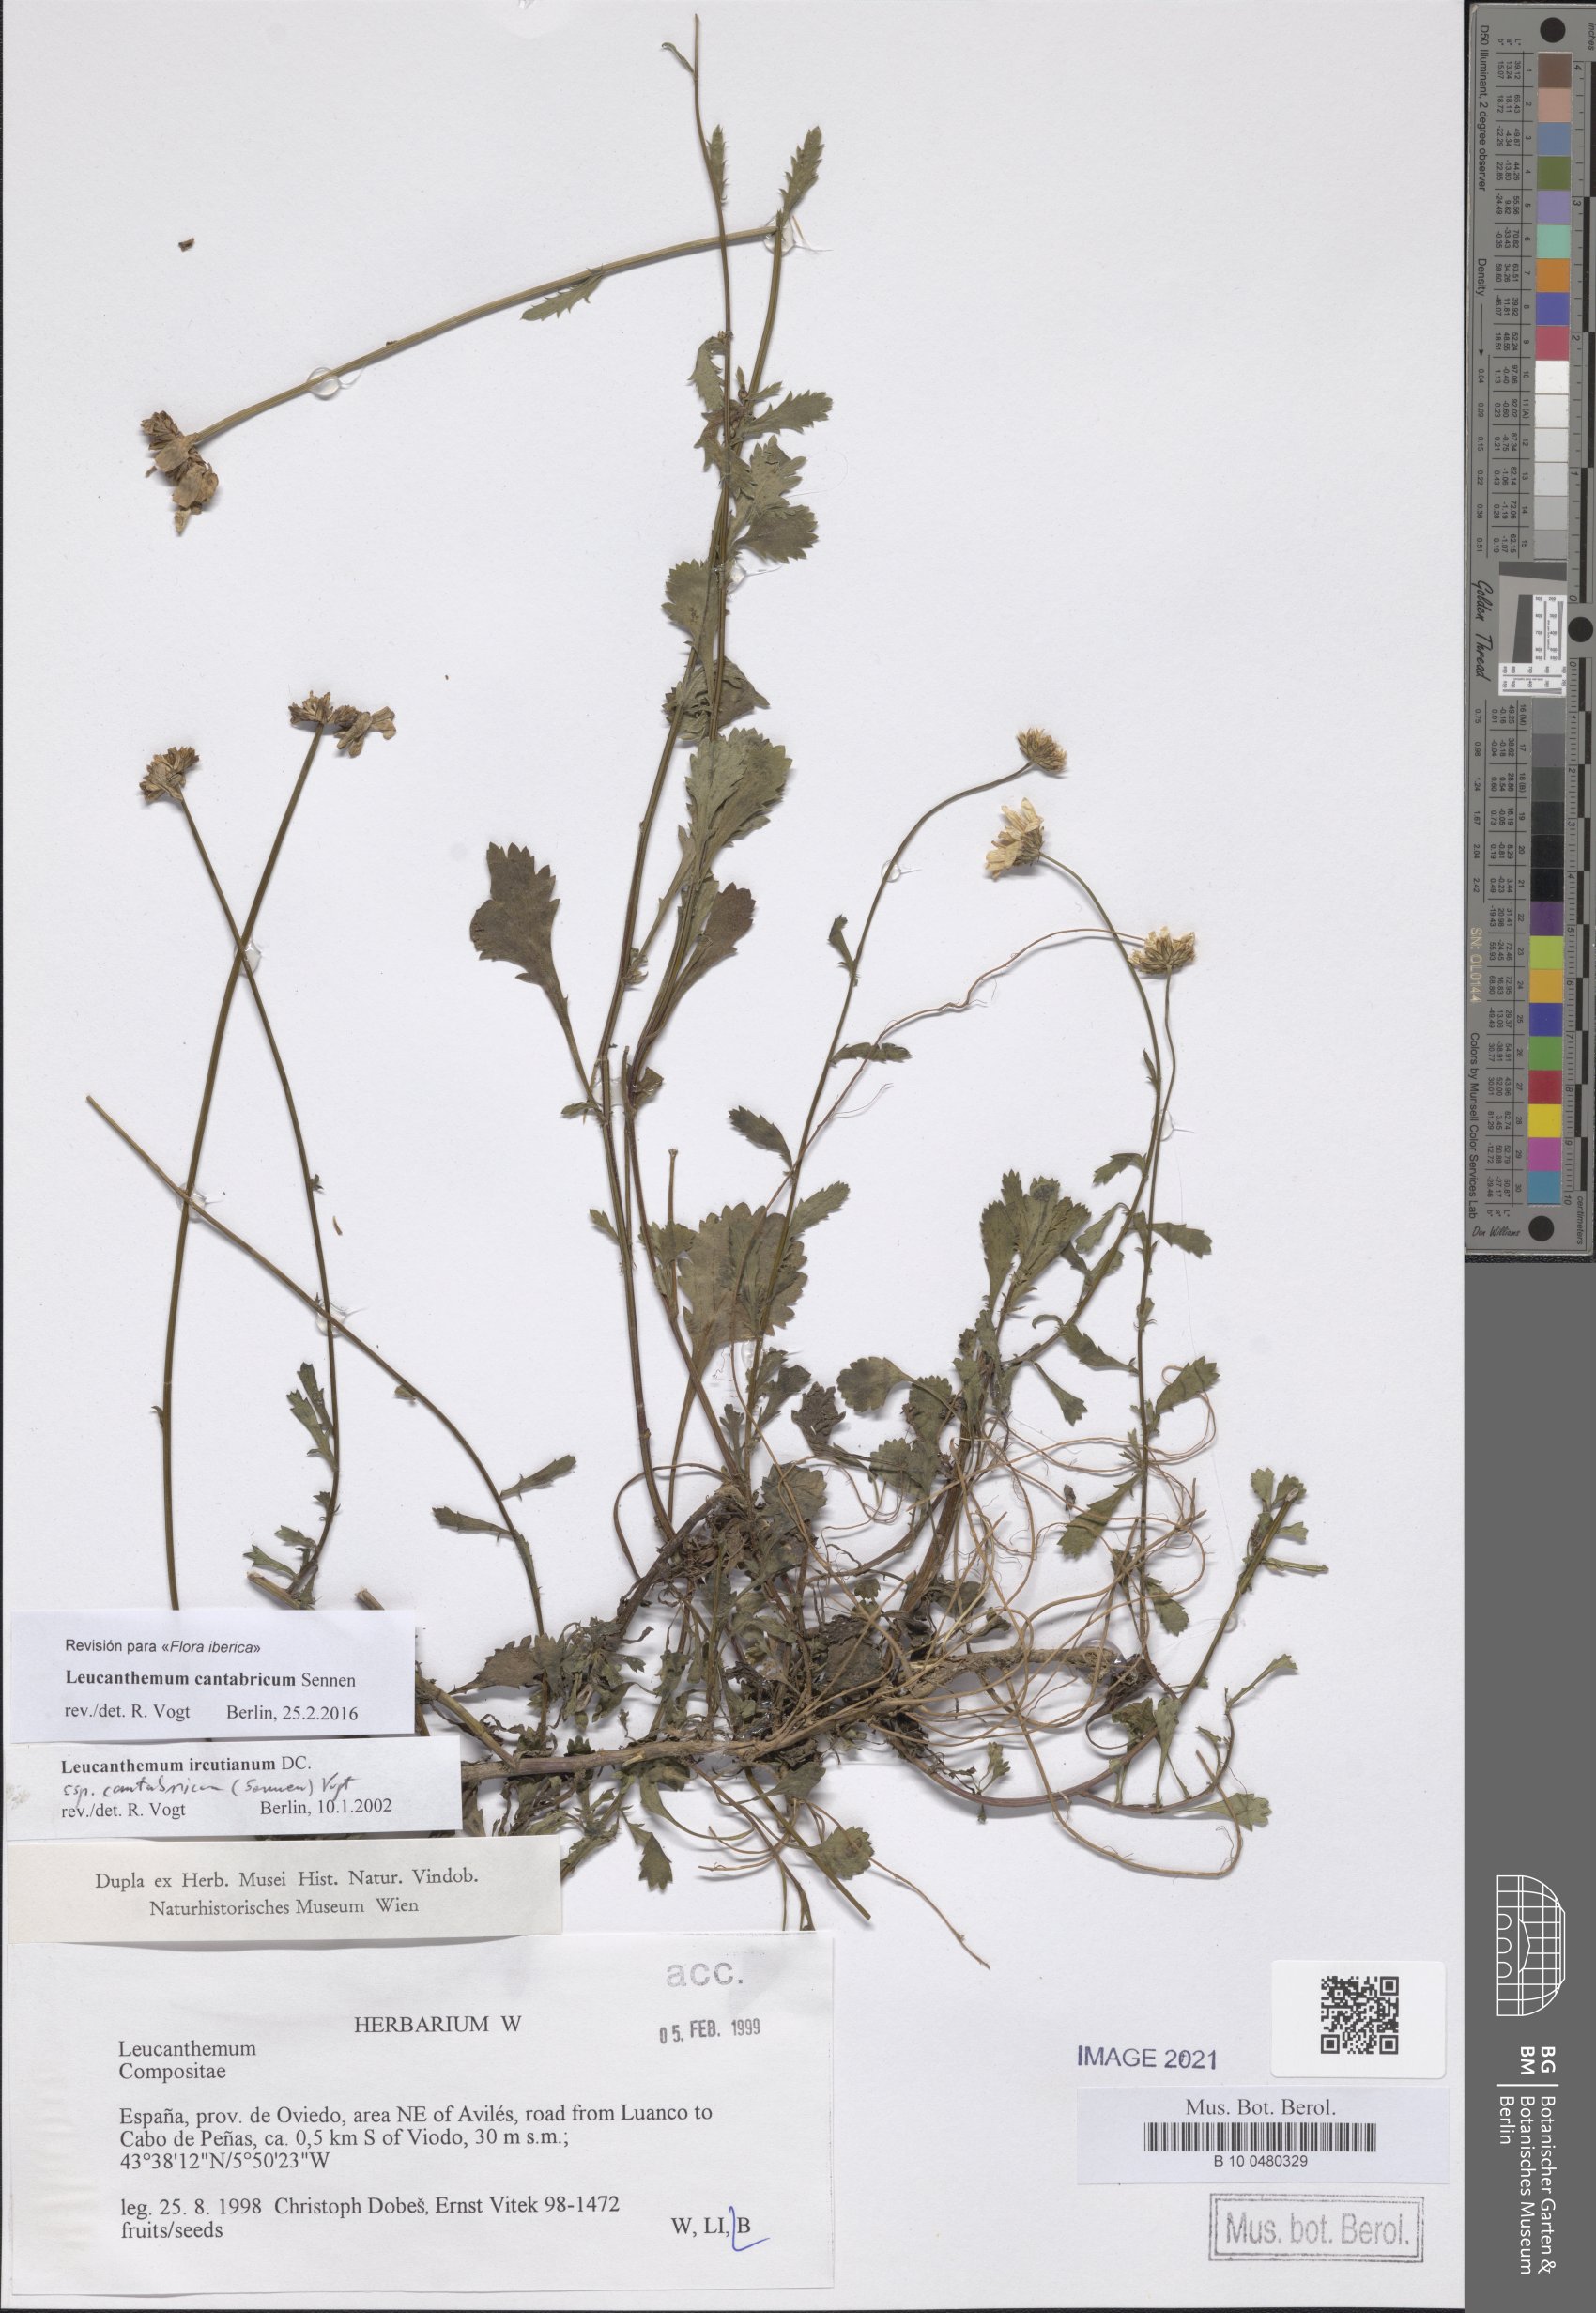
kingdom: Plantae
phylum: Tracheophyta
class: Magnoliopsida
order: Asterales
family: Asteraceae
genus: Leucanthemum
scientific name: Leucanthemum cantabricum
